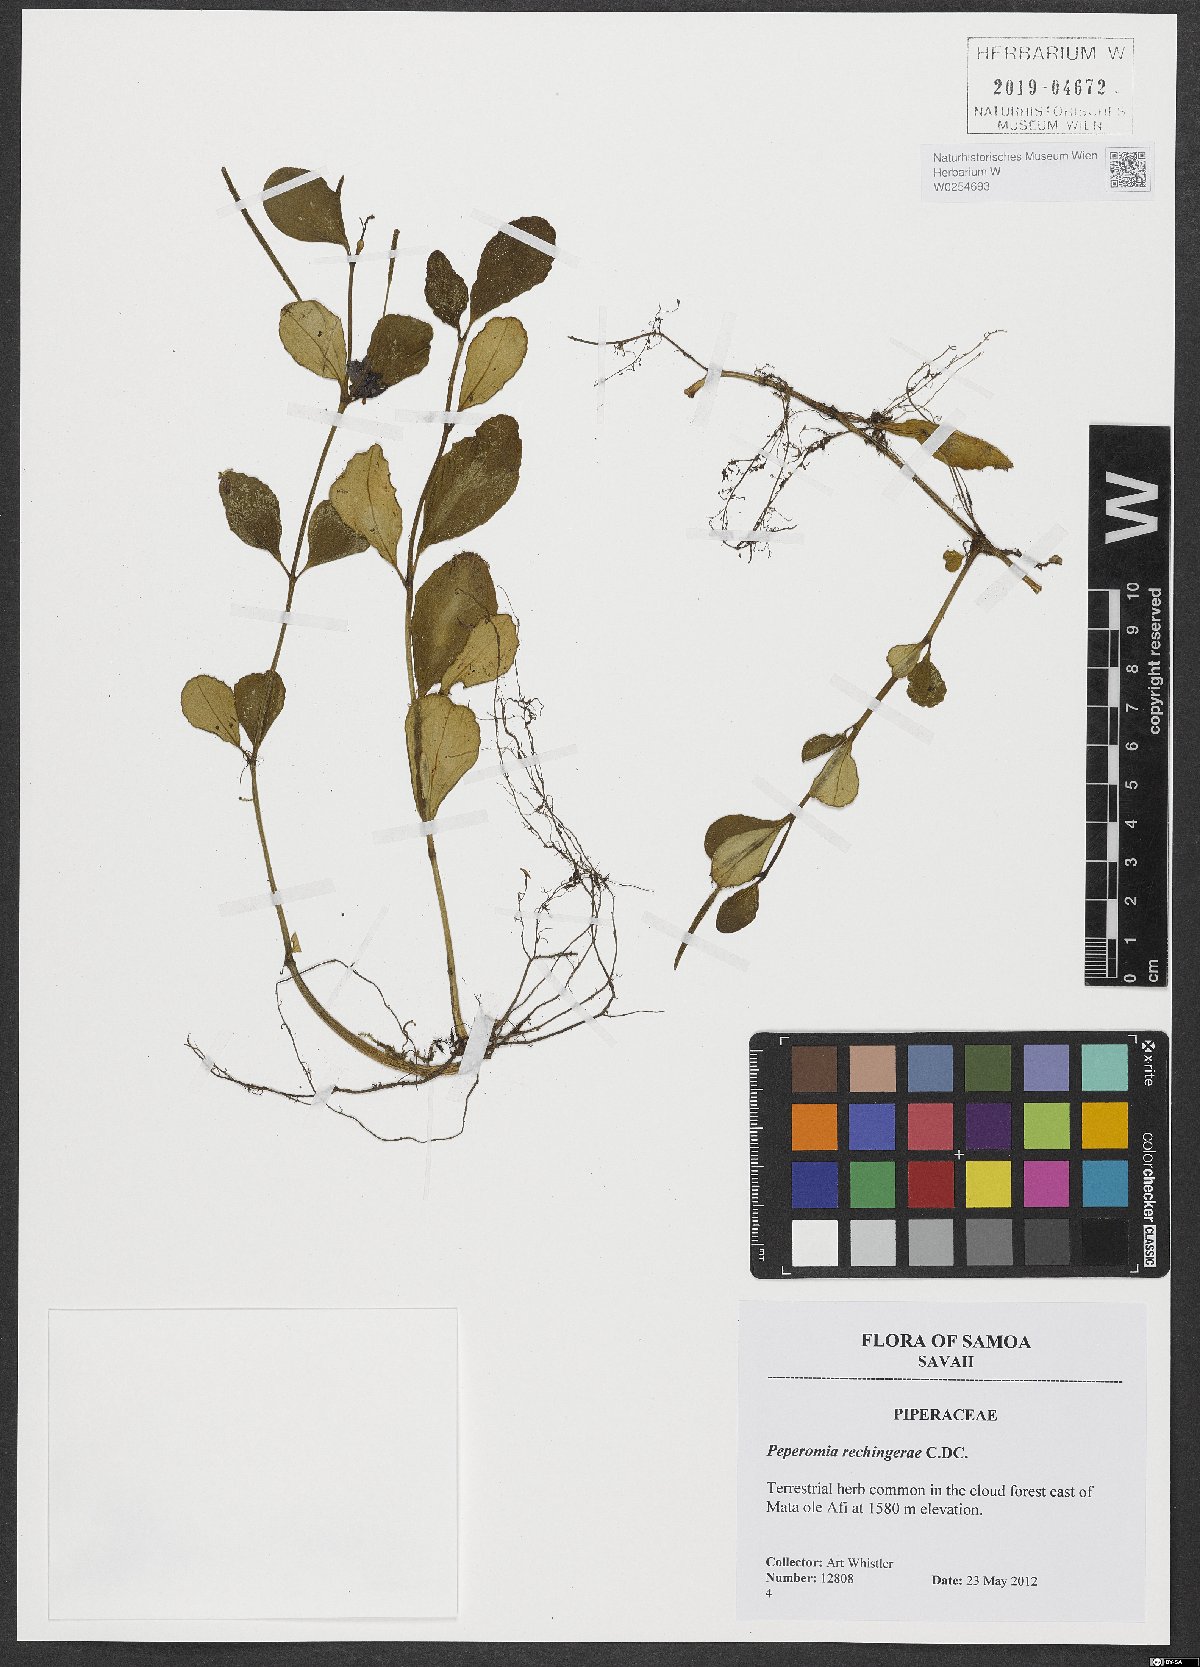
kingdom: Plantae
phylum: Tracheophyta
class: Magnoliopsida
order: Piperales
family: Piperaceae
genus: Peperomia
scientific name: Peperomia rechingeriae
